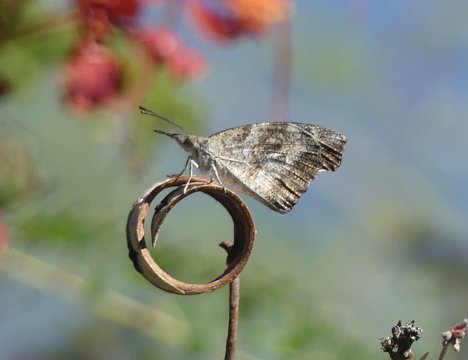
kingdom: Animalia
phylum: Arthropoda
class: Insecta
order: Lepidoptera
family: Nymphalidae
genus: Libytheana
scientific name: Libytheana carinenta
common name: American Snout
